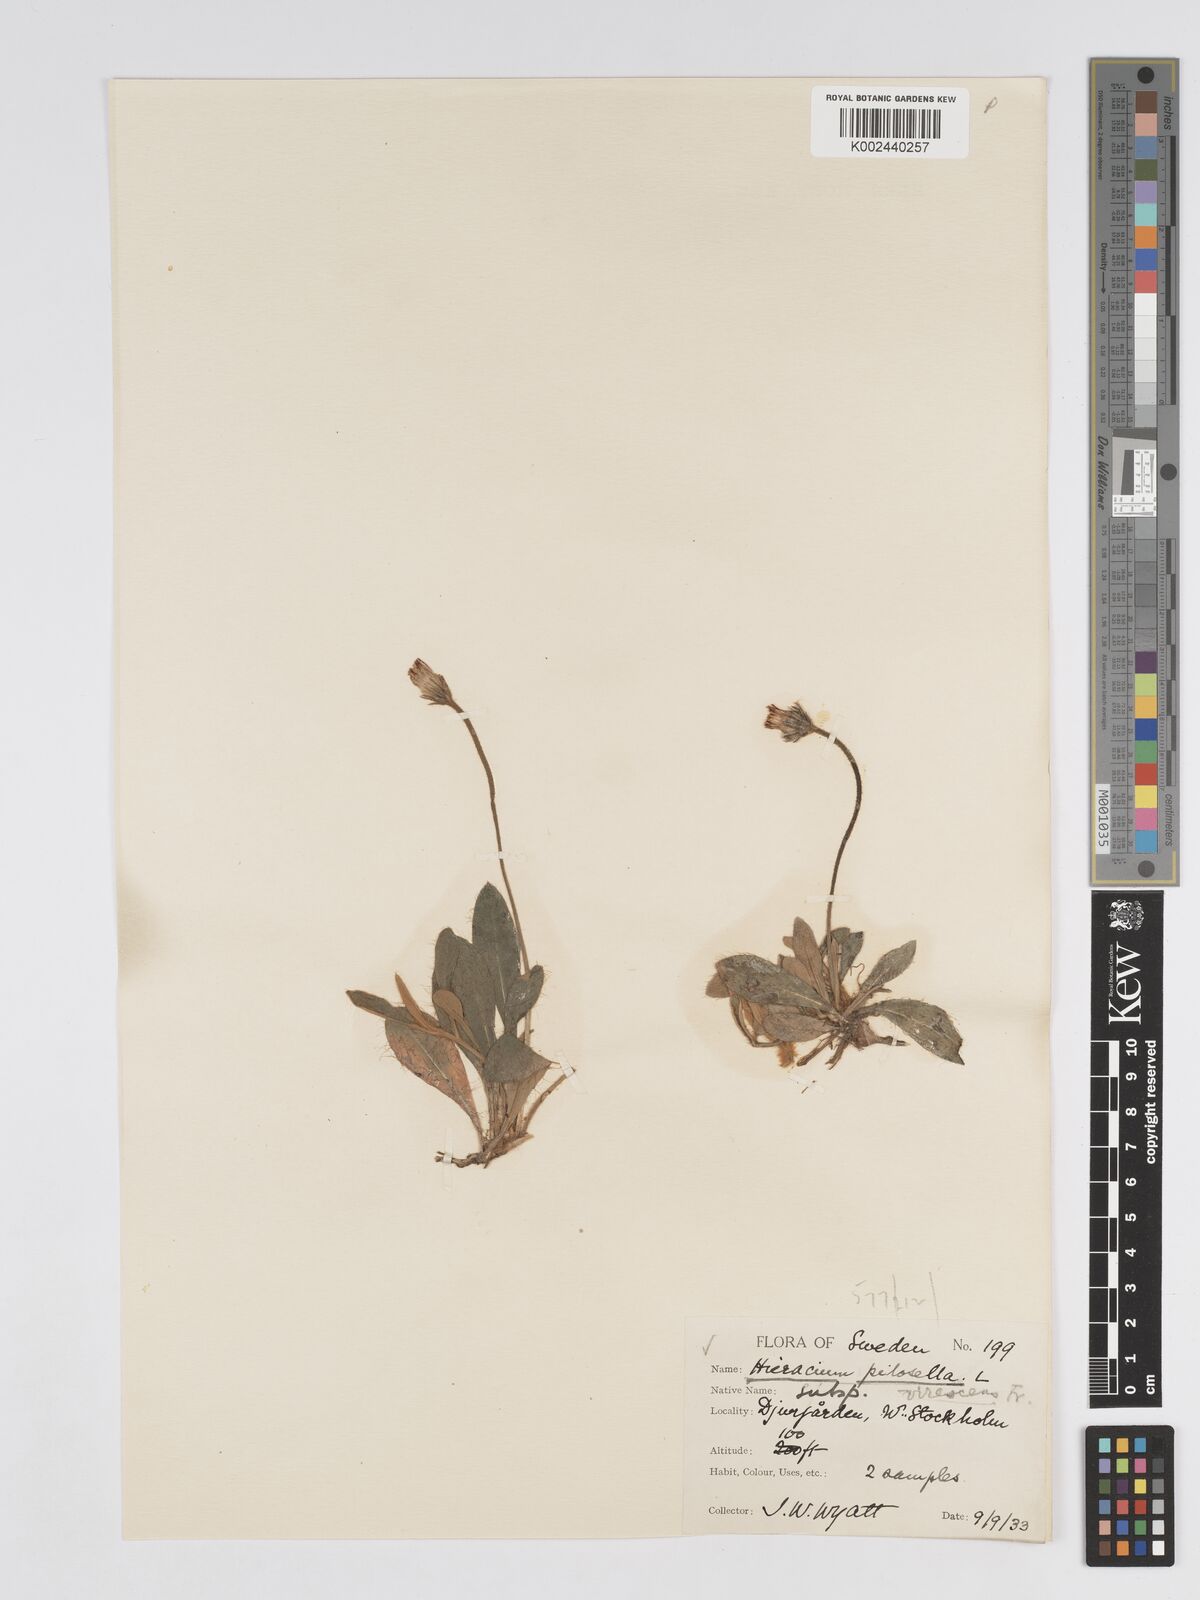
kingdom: Plantae
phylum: Tracheophyta
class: Magnoliopsida
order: Asterales
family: Asteraceae
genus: Pilosella
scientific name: Pilosella officinarum
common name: Mouse-ear hawkweed
